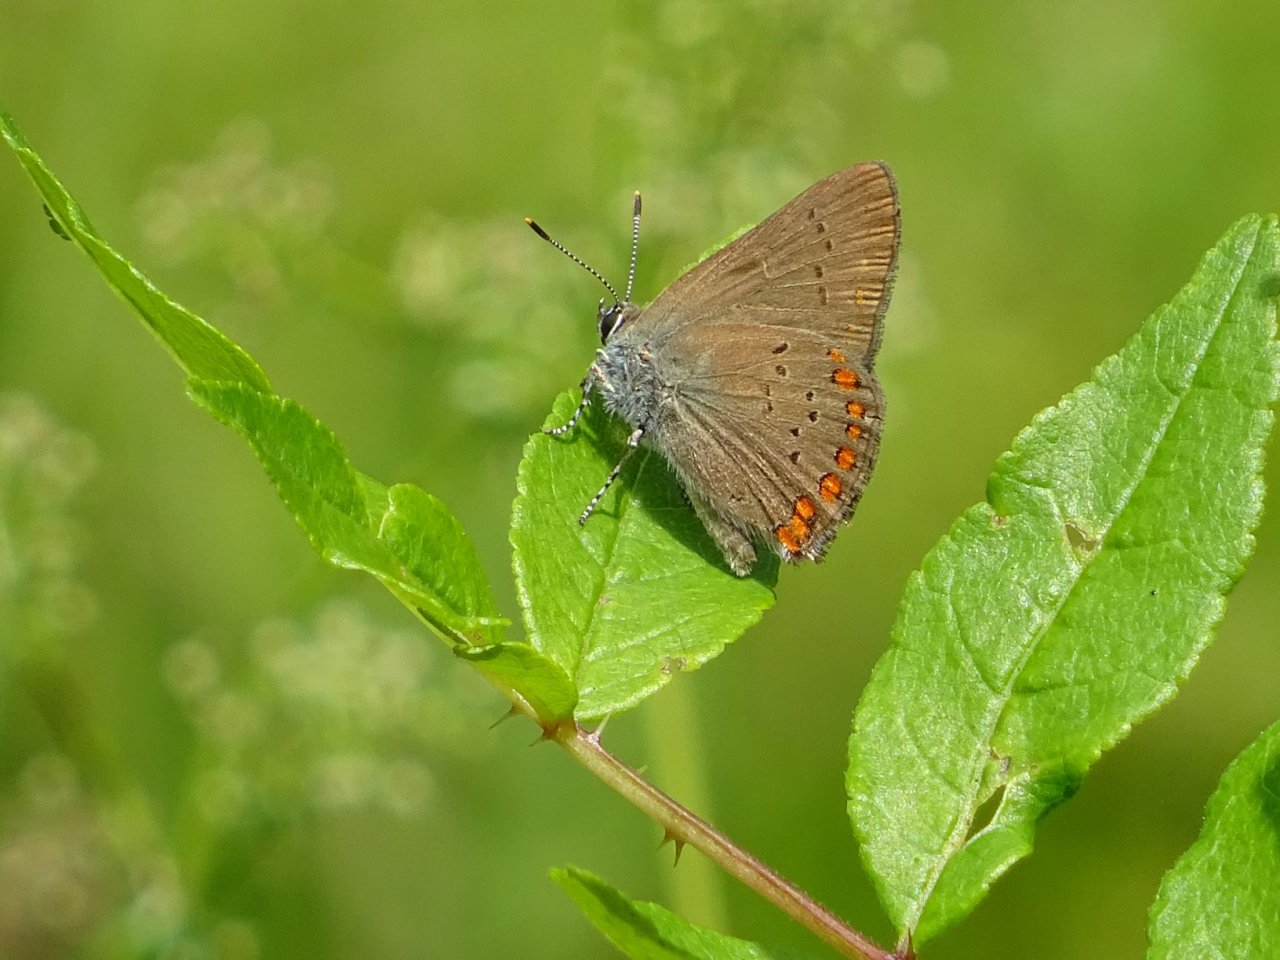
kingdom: Animalia
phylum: Arthropoda
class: Insecta
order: Lepidoptera
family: Lycaenidae
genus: Harkenclenus
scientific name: Harkenclenus titus
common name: Coral Hairstreak
